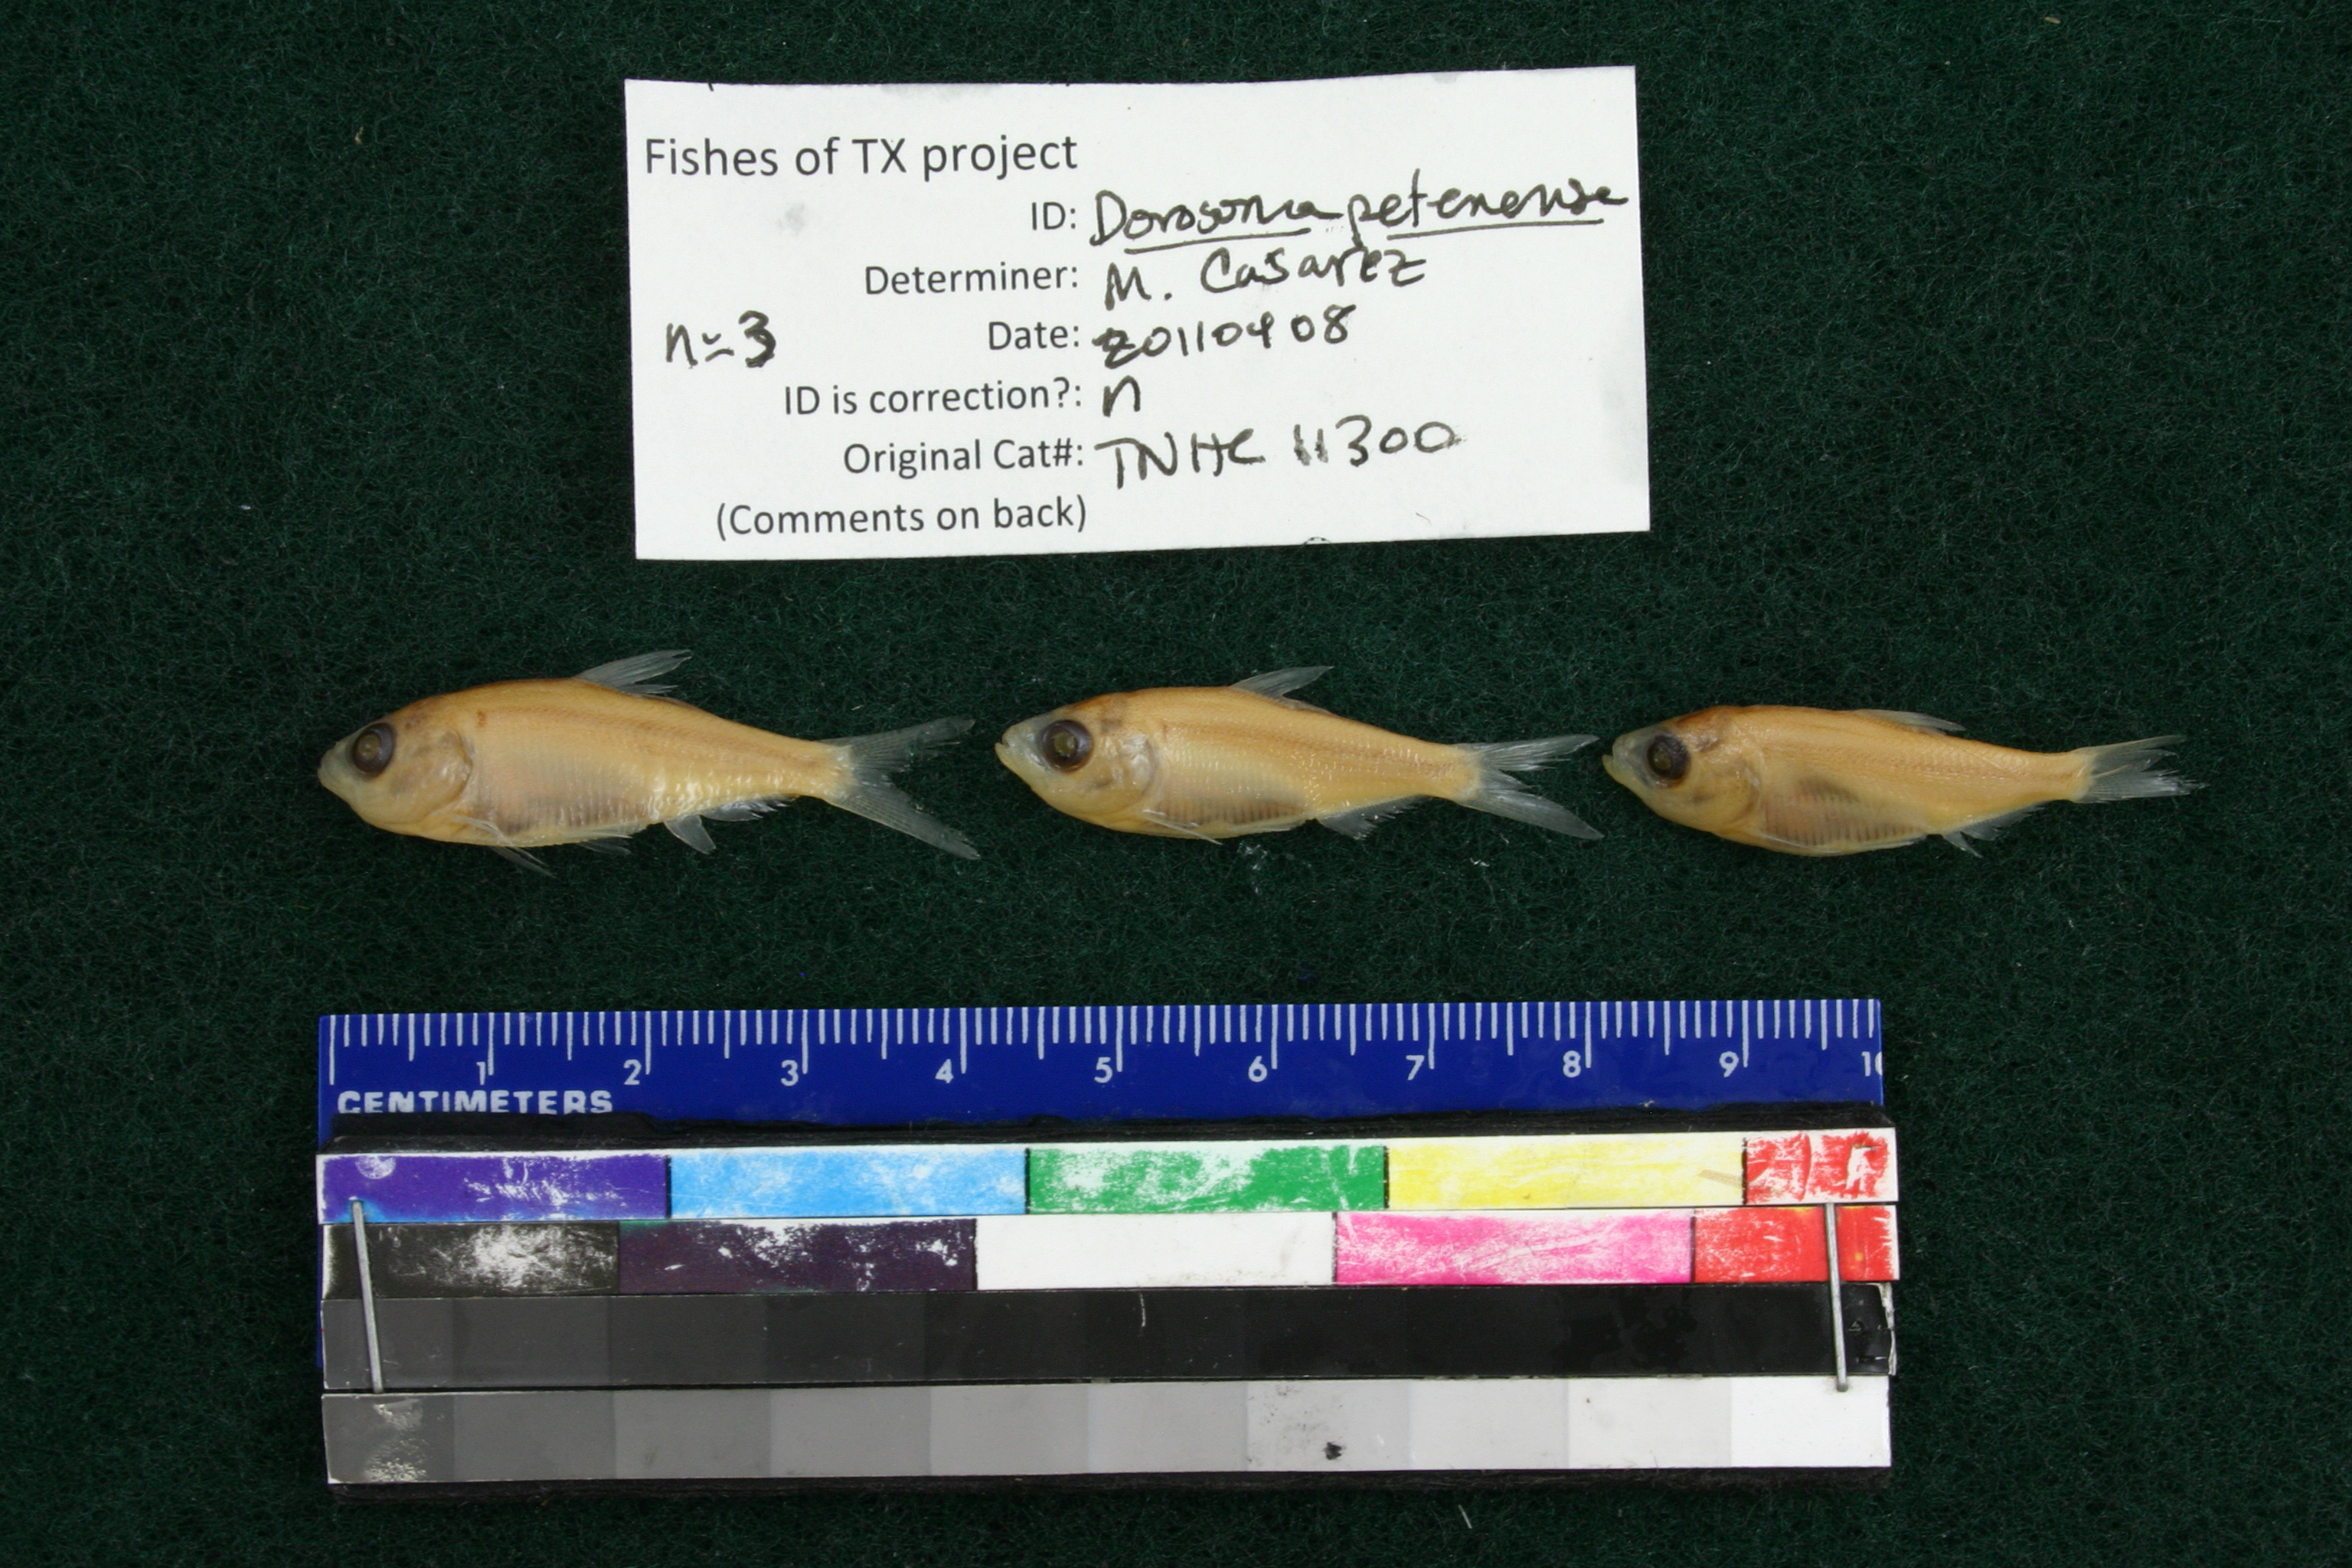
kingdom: Animalia
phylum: Chordata
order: Clupeiformes
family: Clupeidae
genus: Dorosoma
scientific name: Dorosoma petenense
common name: Threadfin shad
